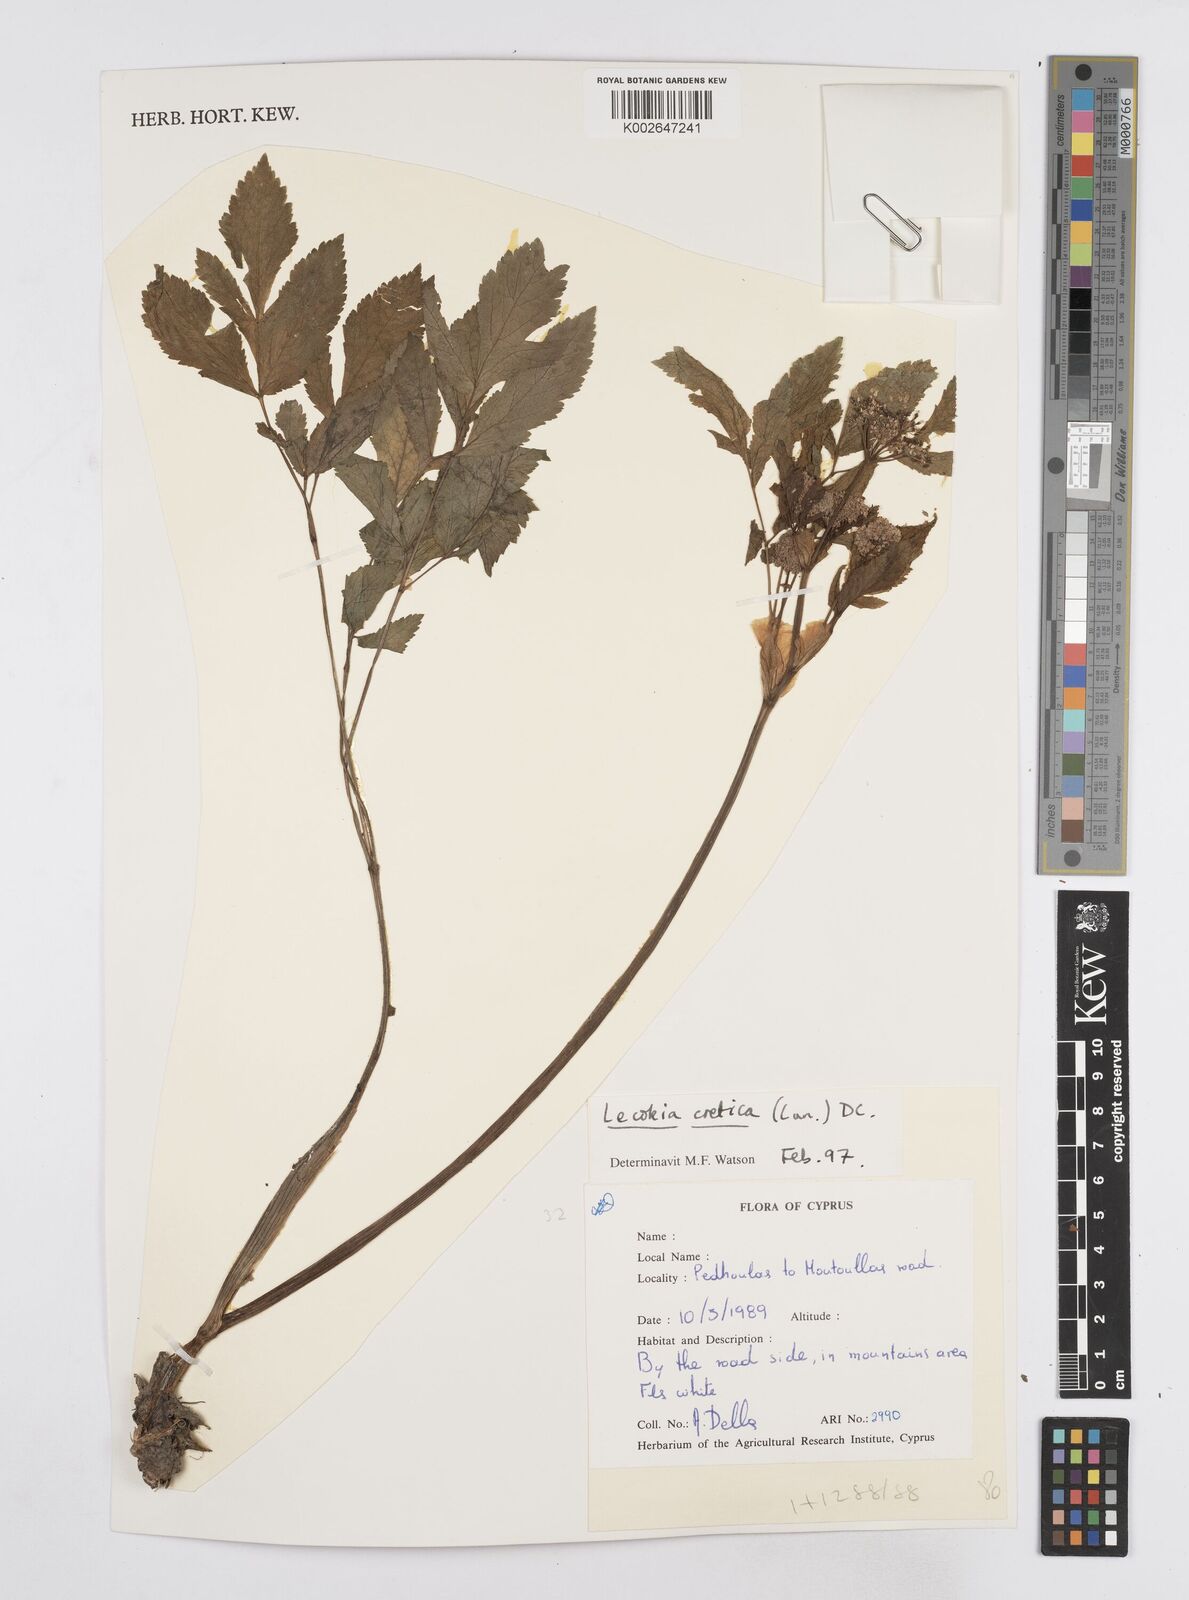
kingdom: Plantae
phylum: Tracheophyta
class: Magnoliopsida
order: Apiales
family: Apiaceae
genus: Lecokia
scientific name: Lecokia cretica
